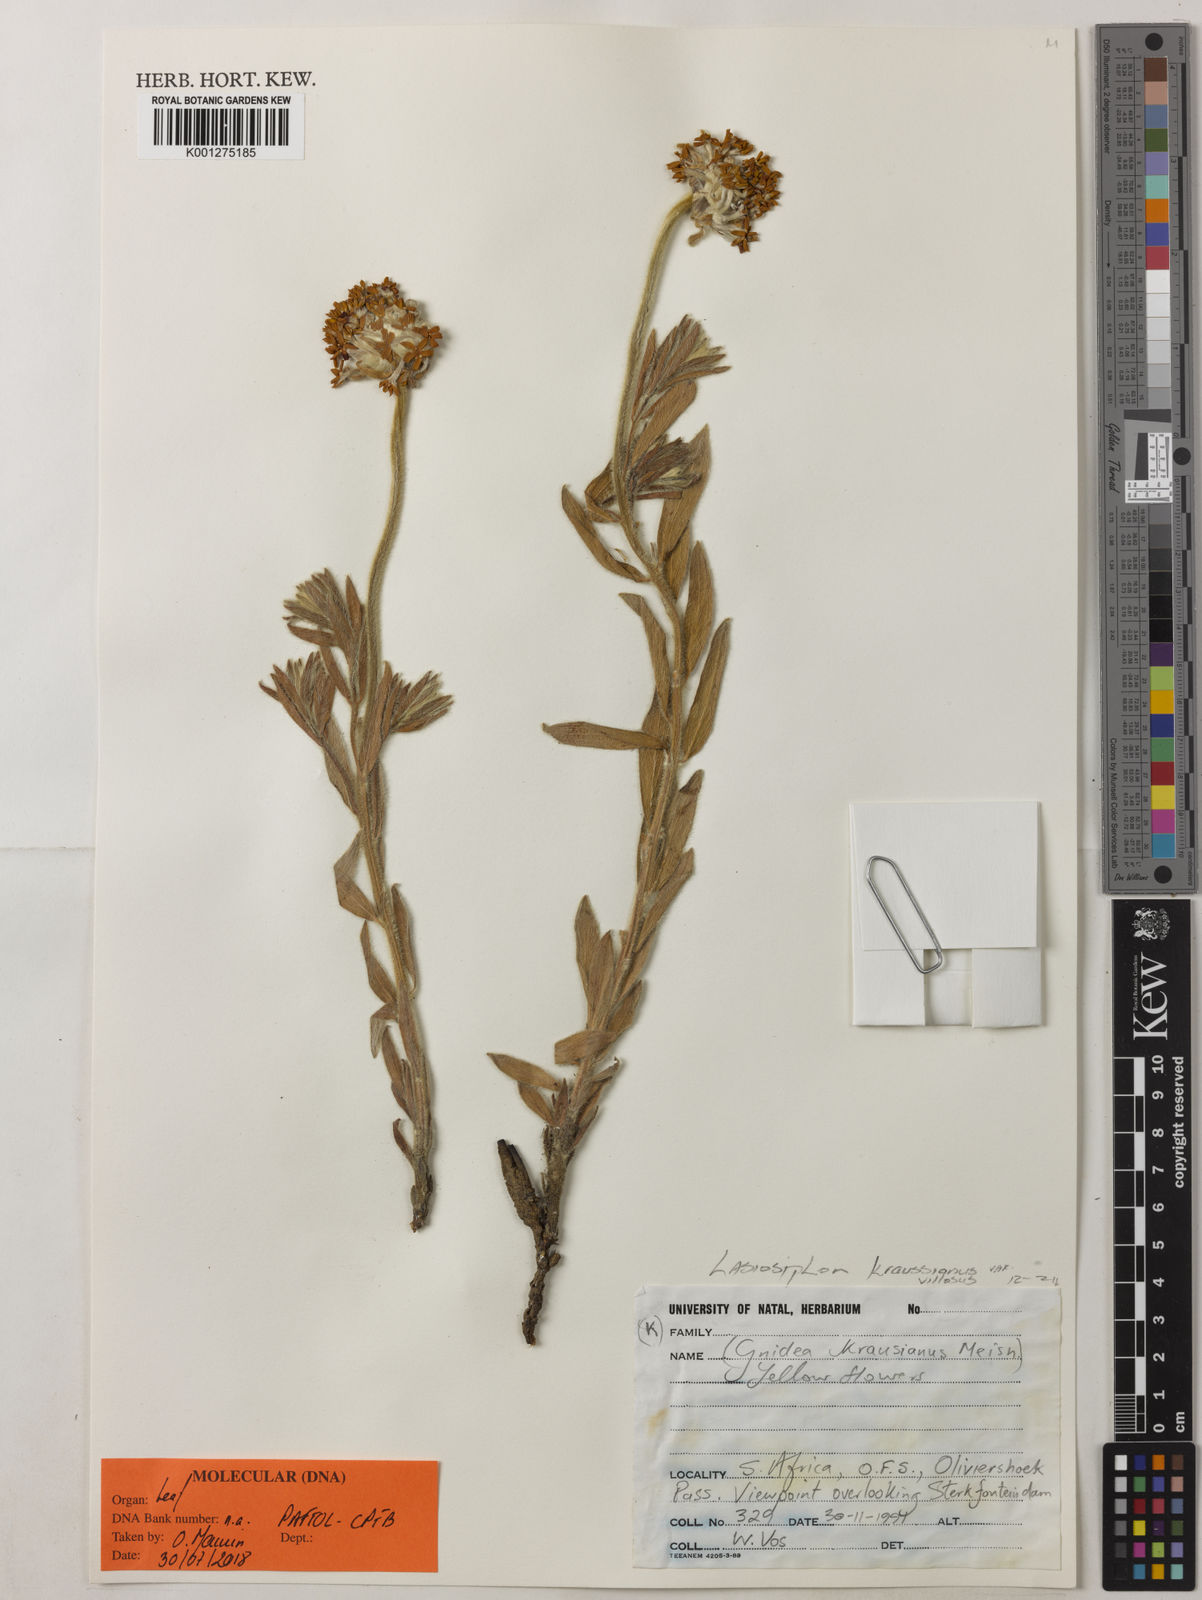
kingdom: Plantae
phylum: Tracheophyta
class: Magnoliopsida
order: Malvales
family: Thymelaeaceae
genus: Gnidia
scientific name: Gnidia kraussiana
